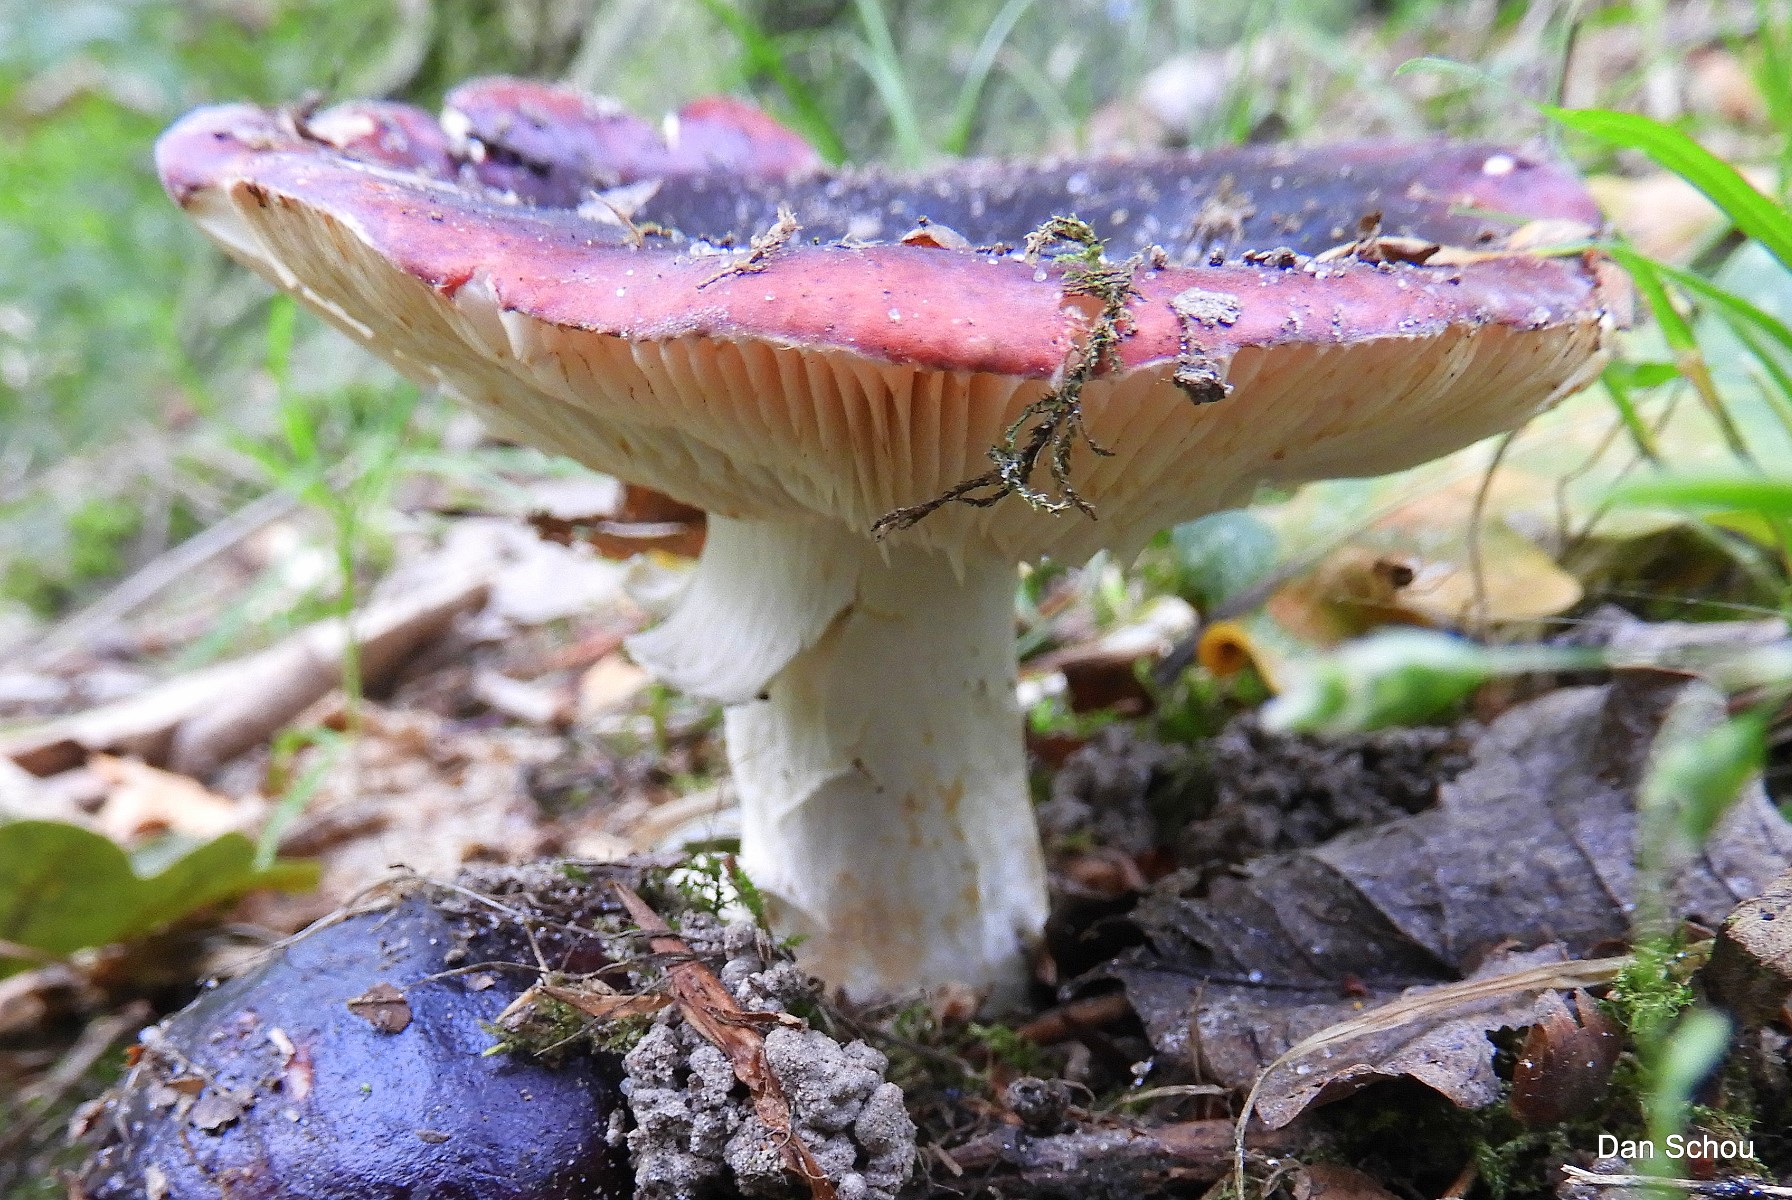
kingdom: Fungi
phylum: Basidiomycota
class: Agaricomycetes
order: Russulales
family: Russulaceae
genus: Russula
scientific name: Russula atropurpurea
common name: purpurbroget skørhat
